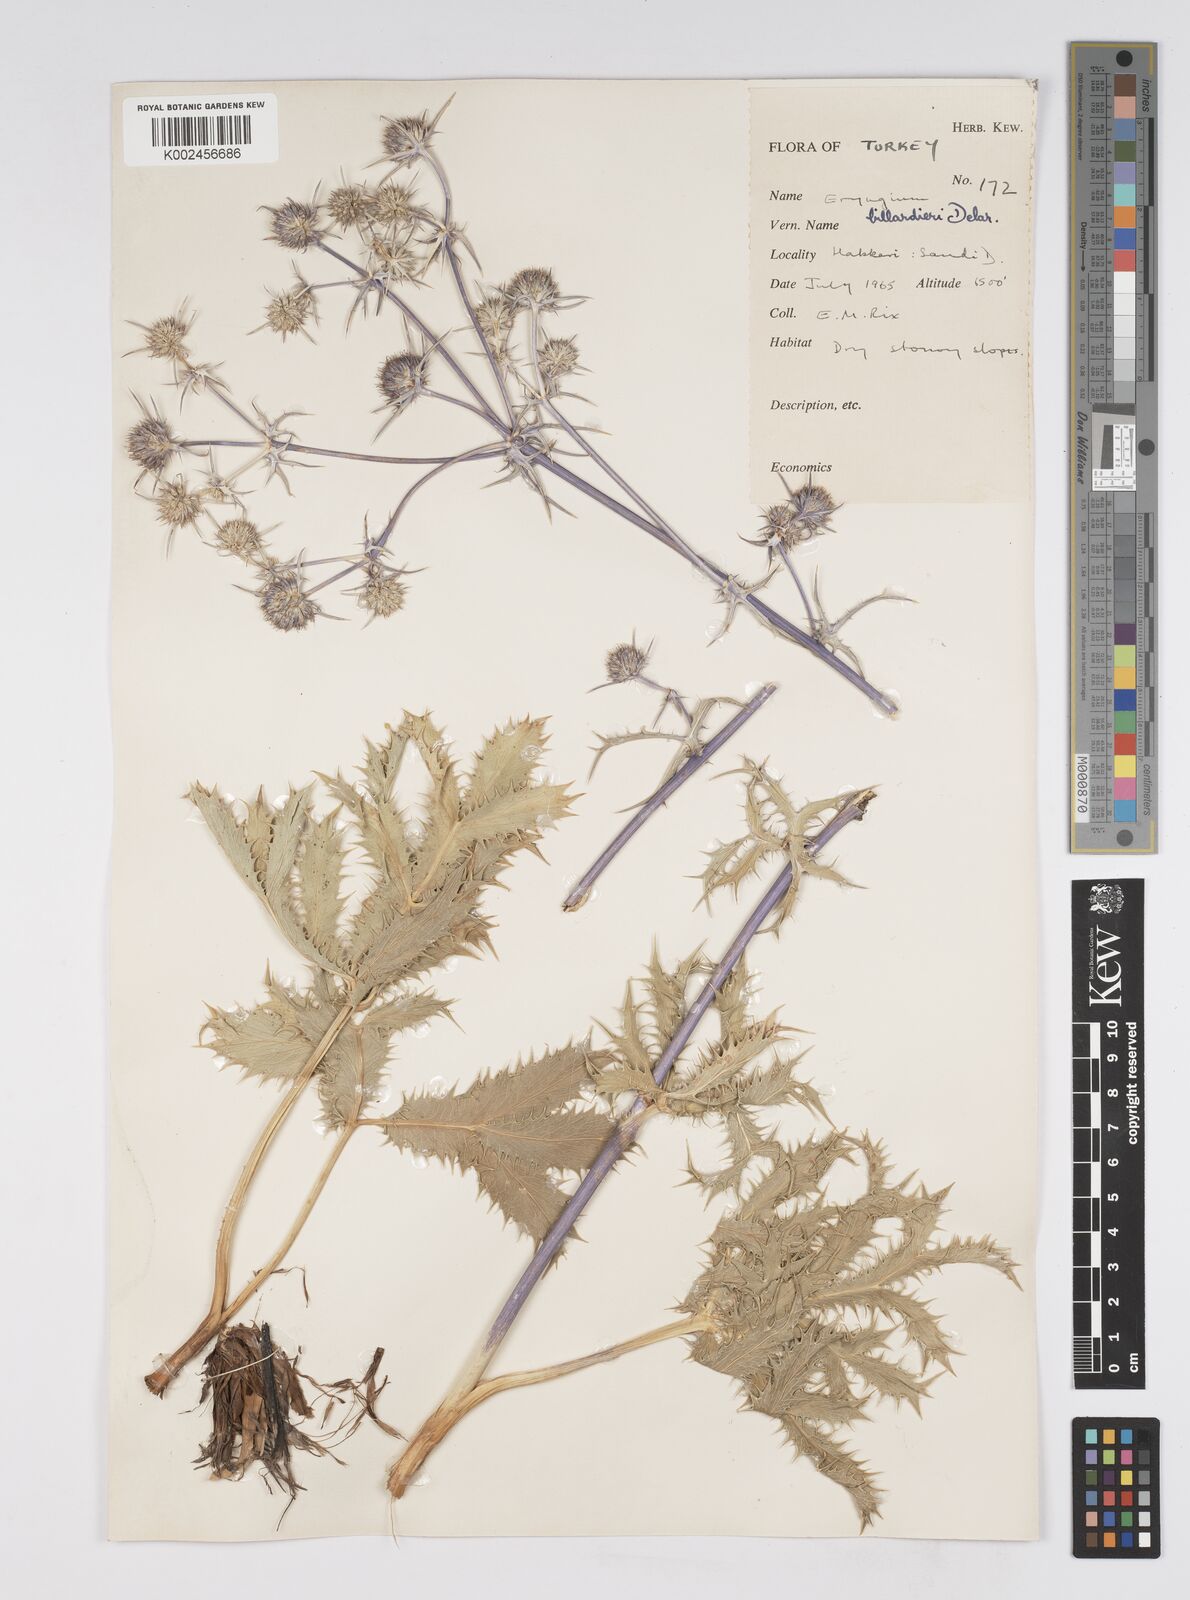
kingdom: Plantae
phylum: Tracheophyta
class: Magnoliopsida
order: Apiales
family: Apiaceae
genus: Eryngium
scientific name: Eryngium billardierei
